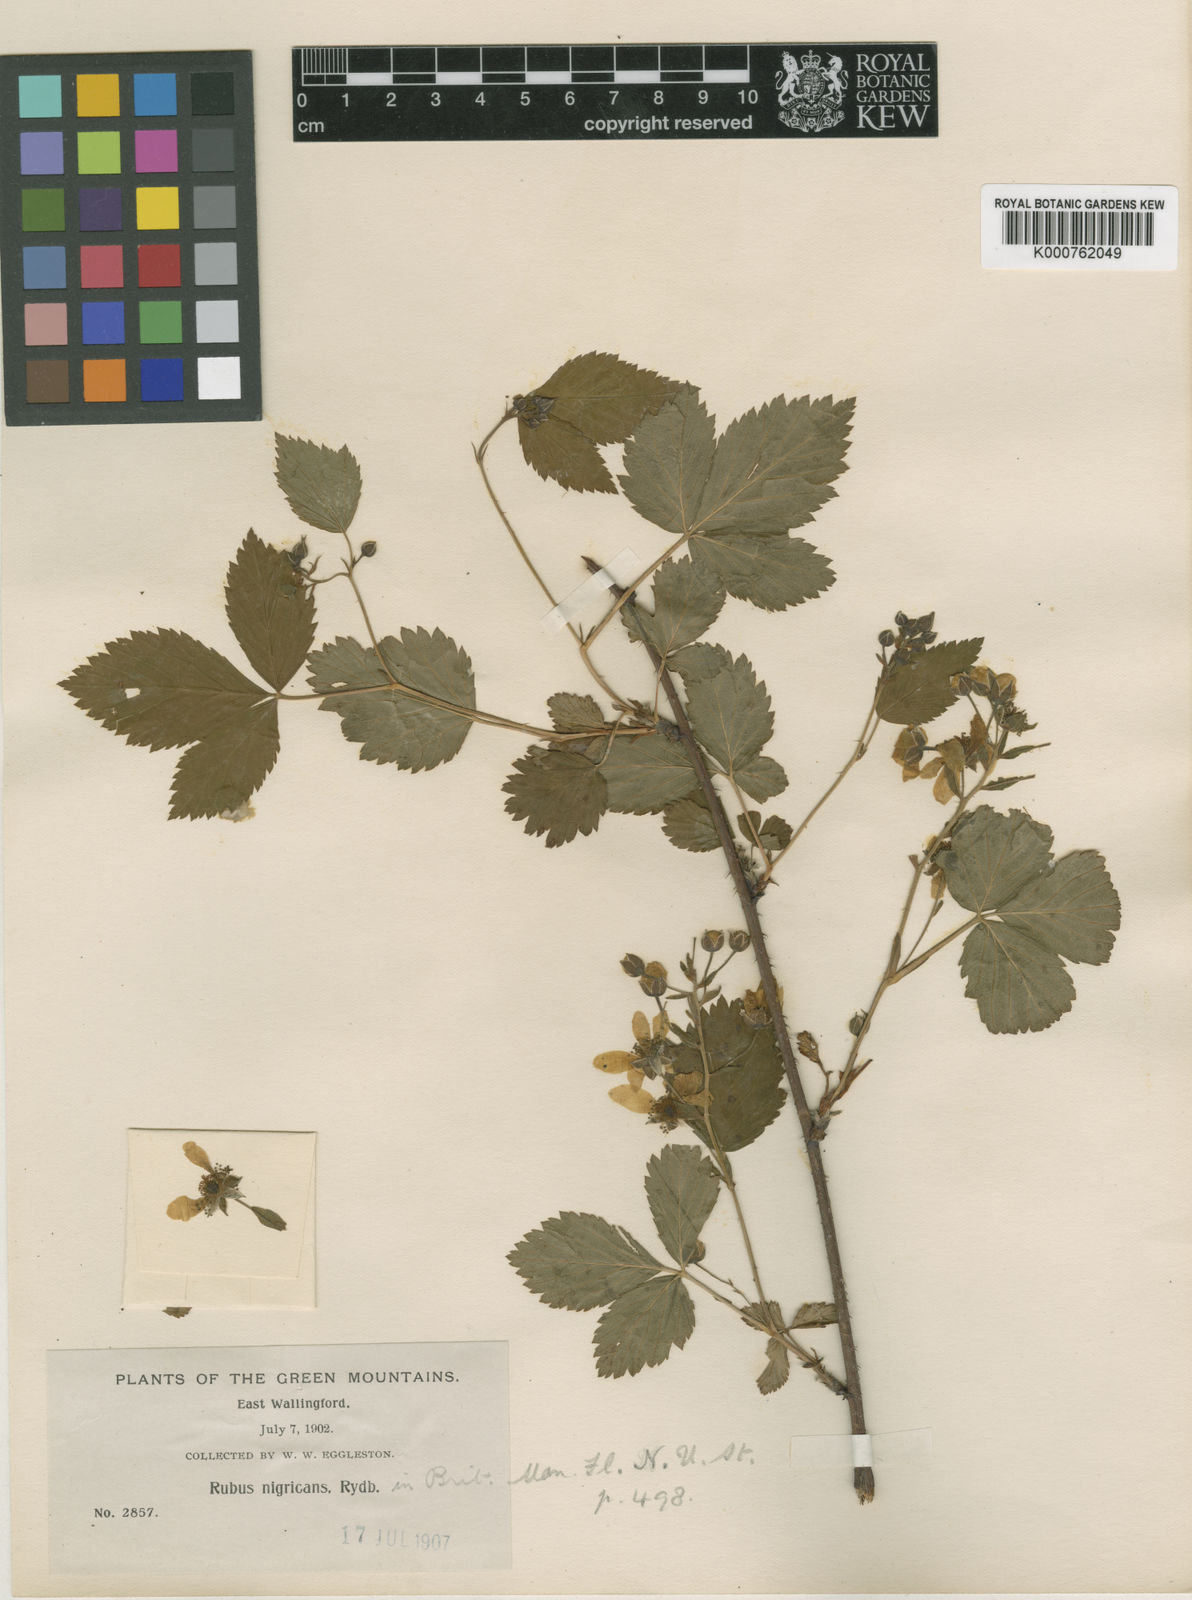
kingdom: Plantae
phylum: Tracheophyta
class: Magnoliopsida
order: Rosales
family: Rosaceae
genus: Rubus
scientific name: Rubus setosus
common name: Bristly blackberry
